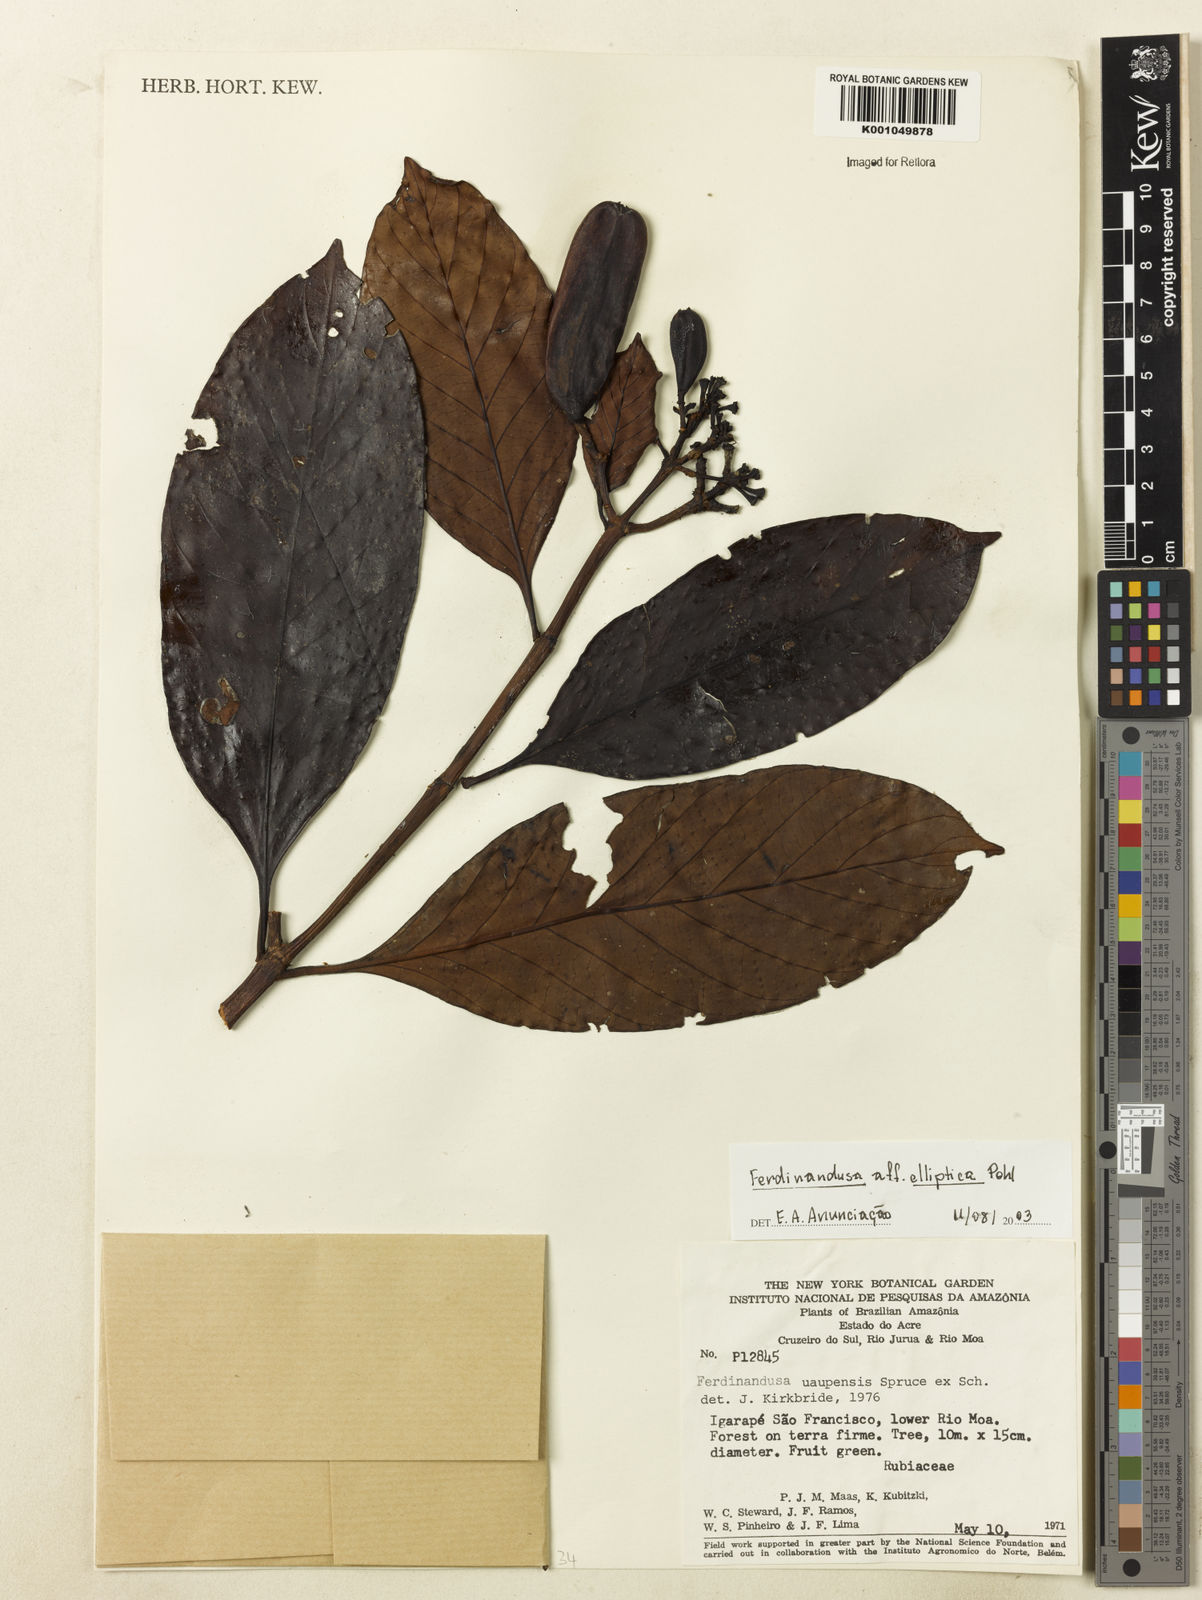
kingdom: Plantae
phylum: Tracheophyta
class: Magnoliopsida
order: Gentianales
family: Rubiaceae
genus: Ferdinandusa
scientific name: Ferdinandusa
